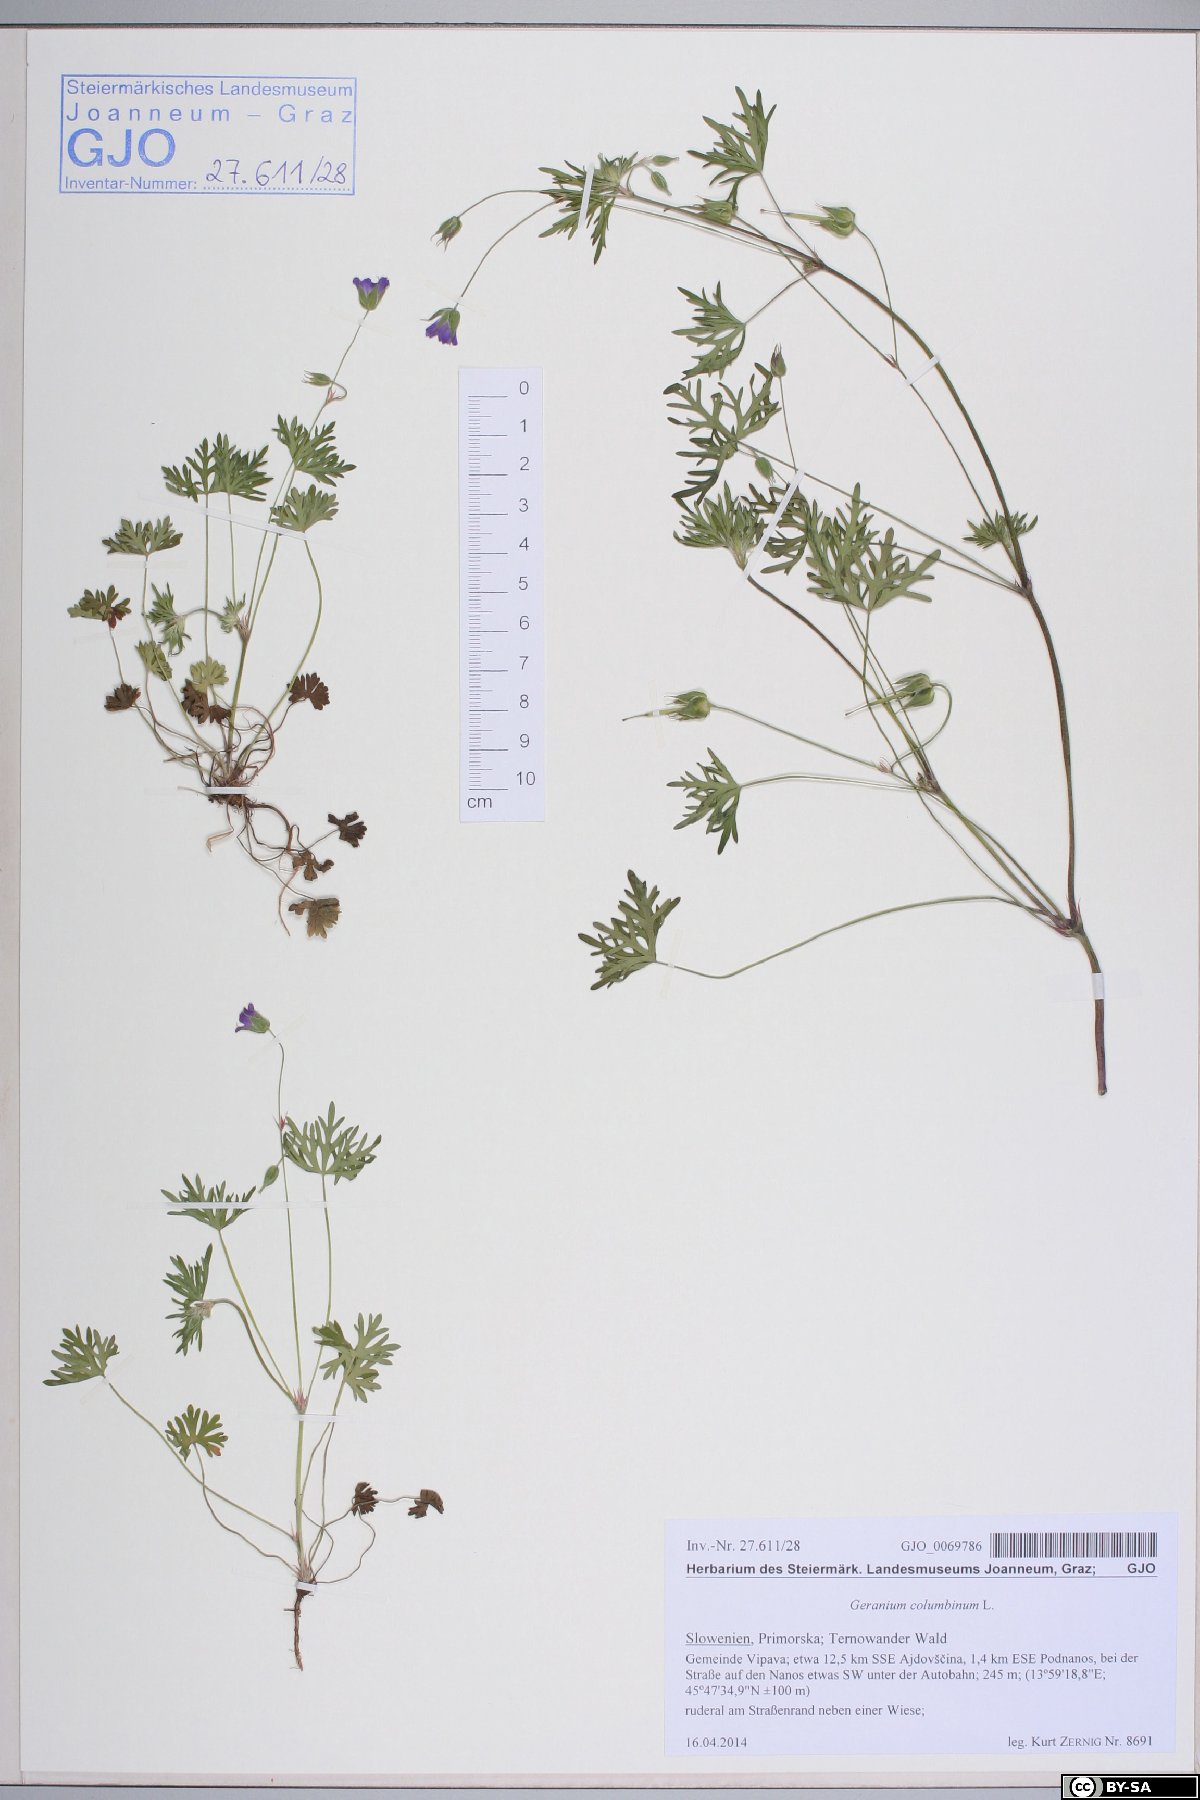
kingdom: Plantae
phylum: Tracheophyta
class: Magnoliopsida
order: Geraniales
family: Geraniaceae
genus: Geranium
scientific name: Geranium columbinum
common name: Long-stalked crane's-bill
